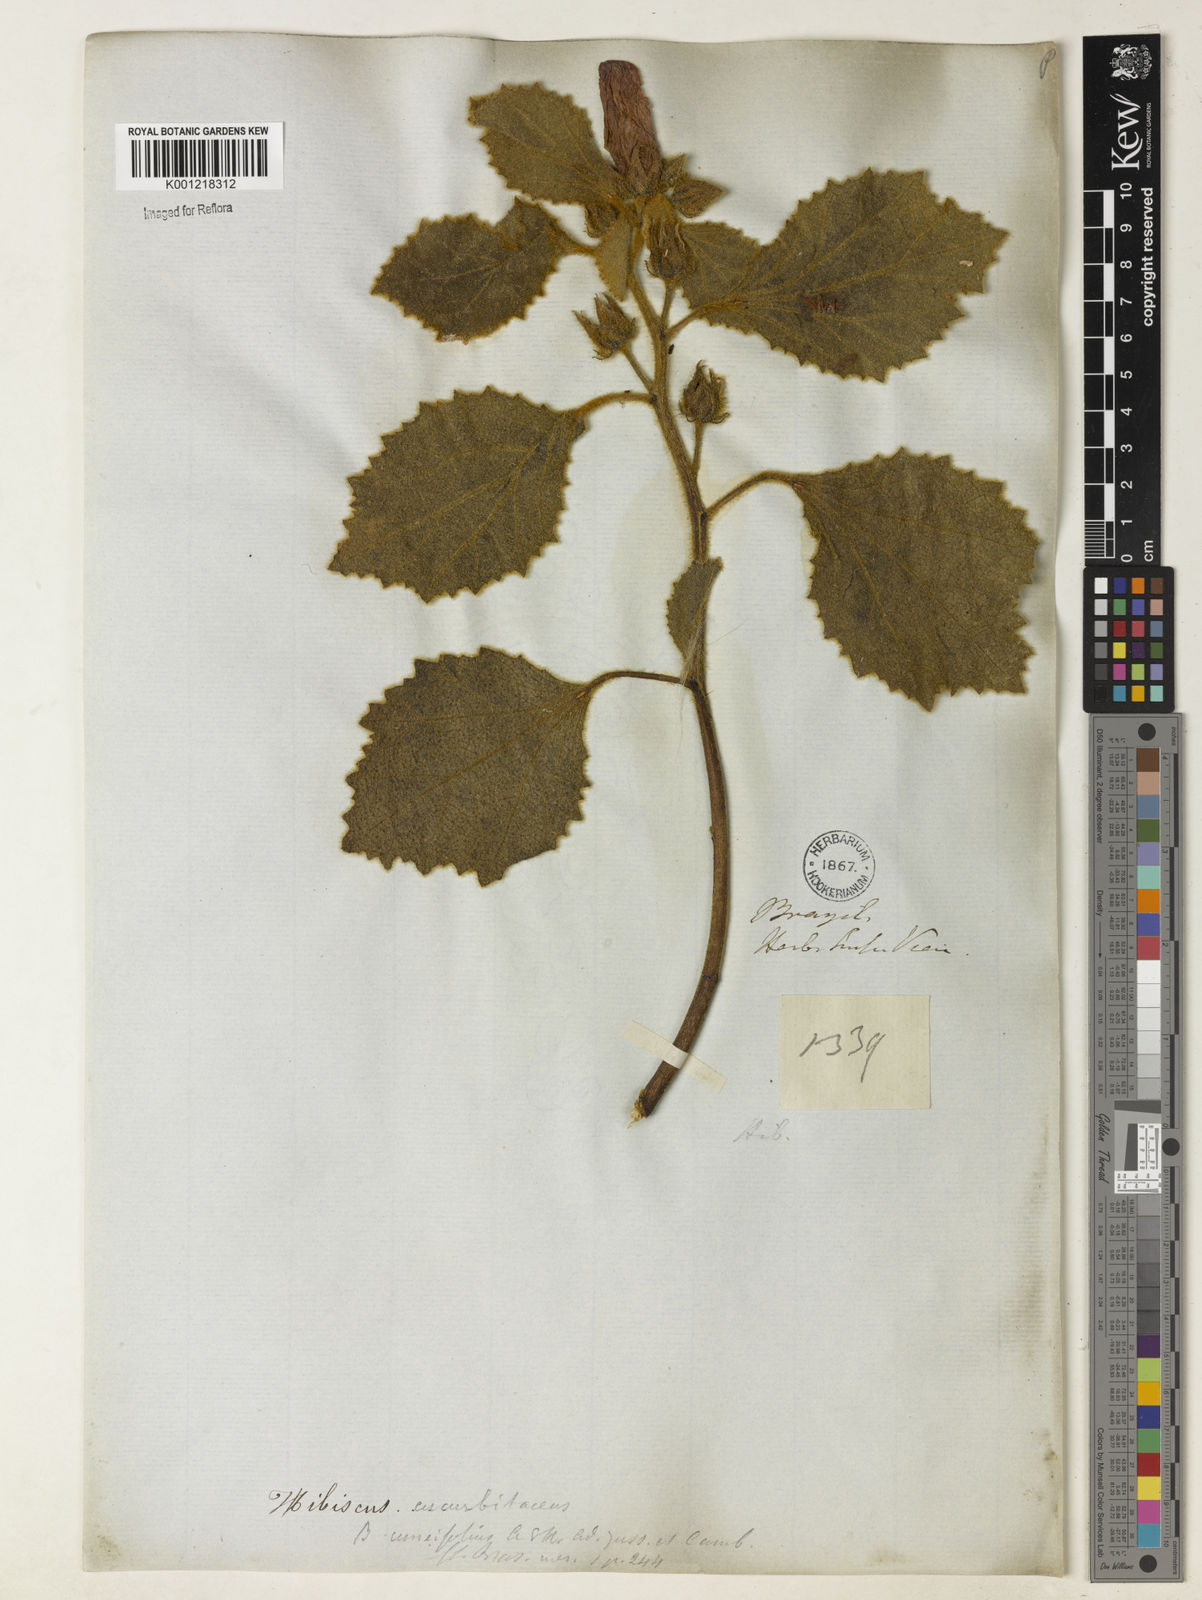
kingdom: Plantae
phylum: Tracheophyta
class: Magnoliopsida
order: Malvales
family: Malvaceae
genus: Hibiscus
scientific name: Hibiscus cucurbitaceus
